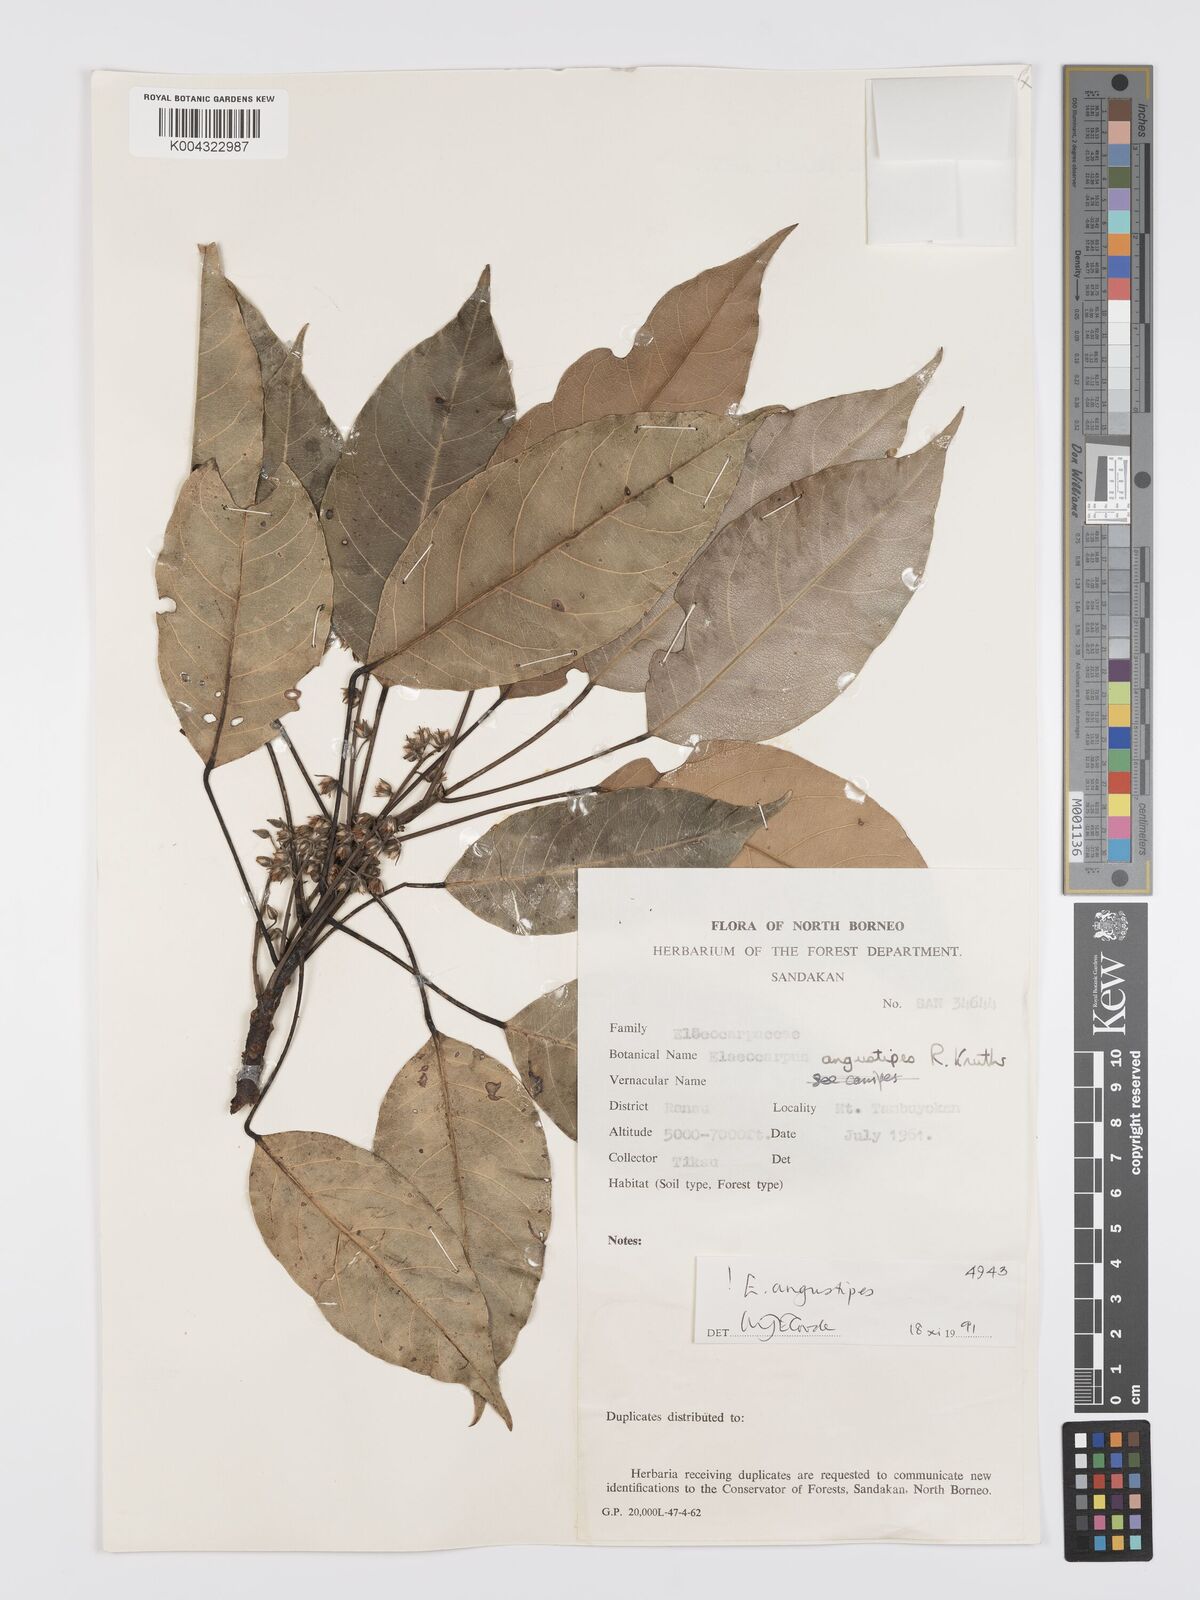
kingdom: Plantae
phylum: Tracheophyta
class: Magnoliopsida
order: Oxalidales
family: Elaeocarpaceae
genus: Elaeocarpus
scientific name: Elaeocarpus angustipes
